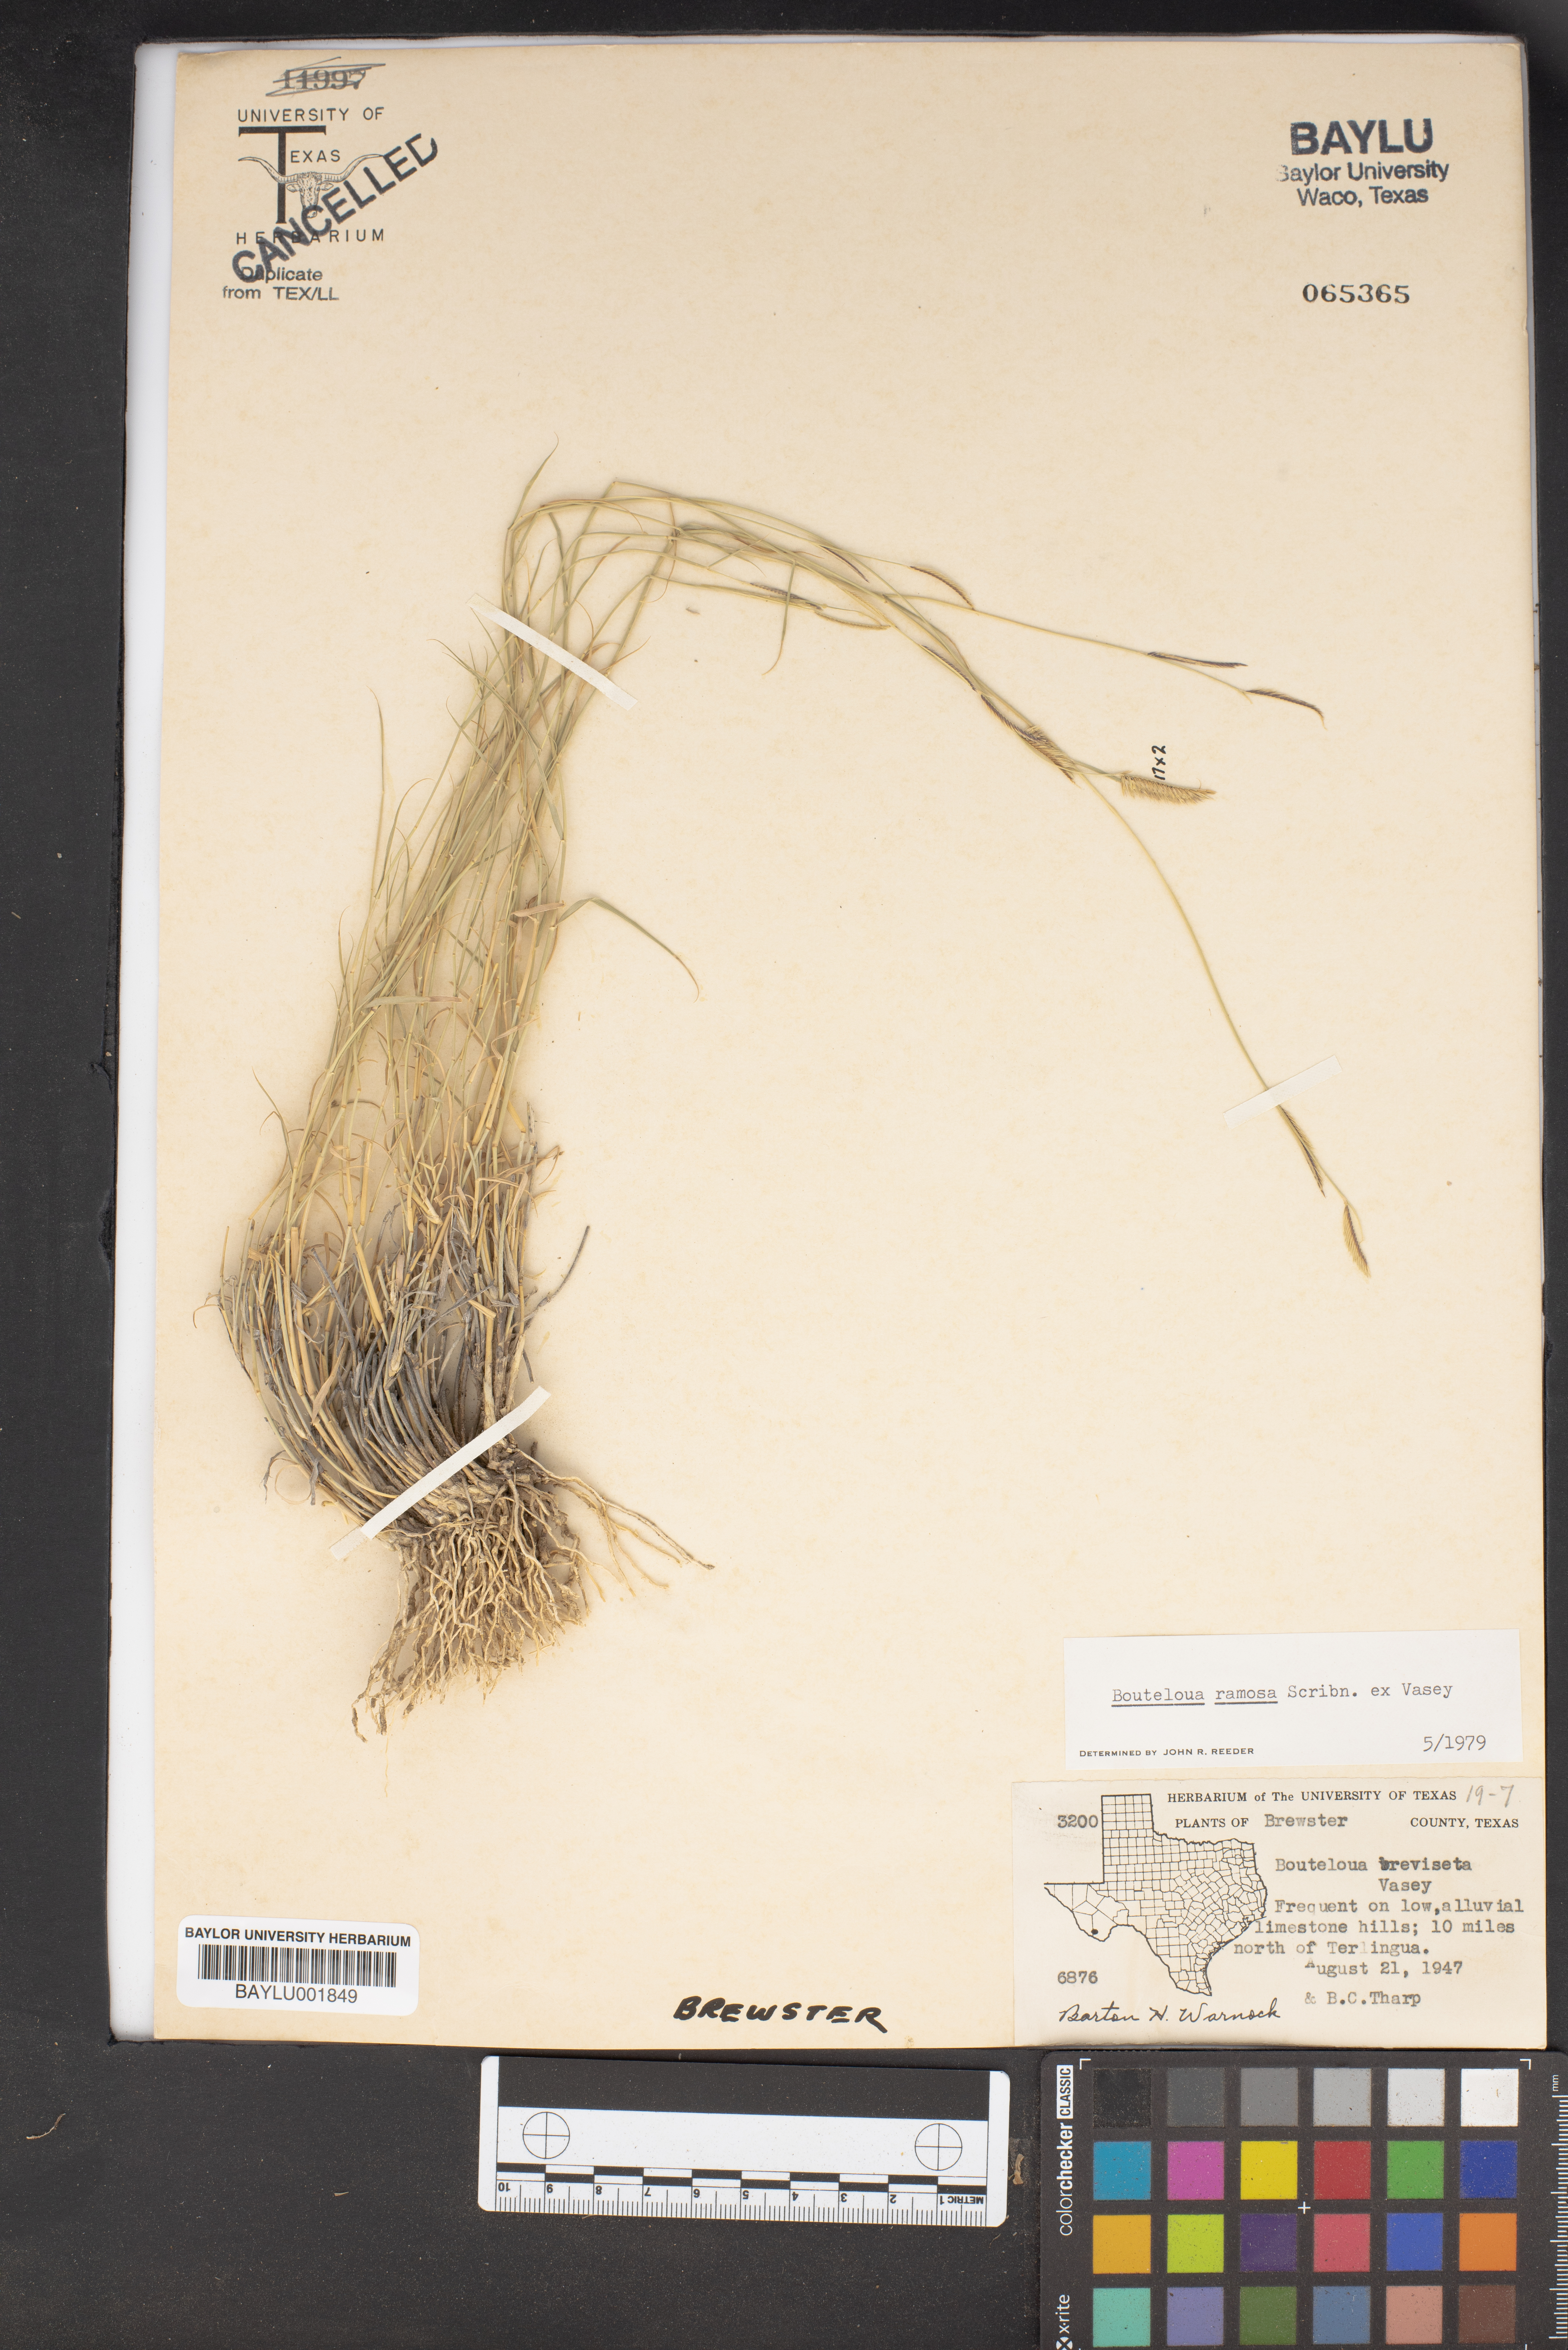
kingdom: Plantae
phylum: Tracheophyta
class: Liliopsida
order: Poales
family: Poaceae
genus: Bouteloua
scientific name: Bouteloua ramosa
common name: Chino grama
